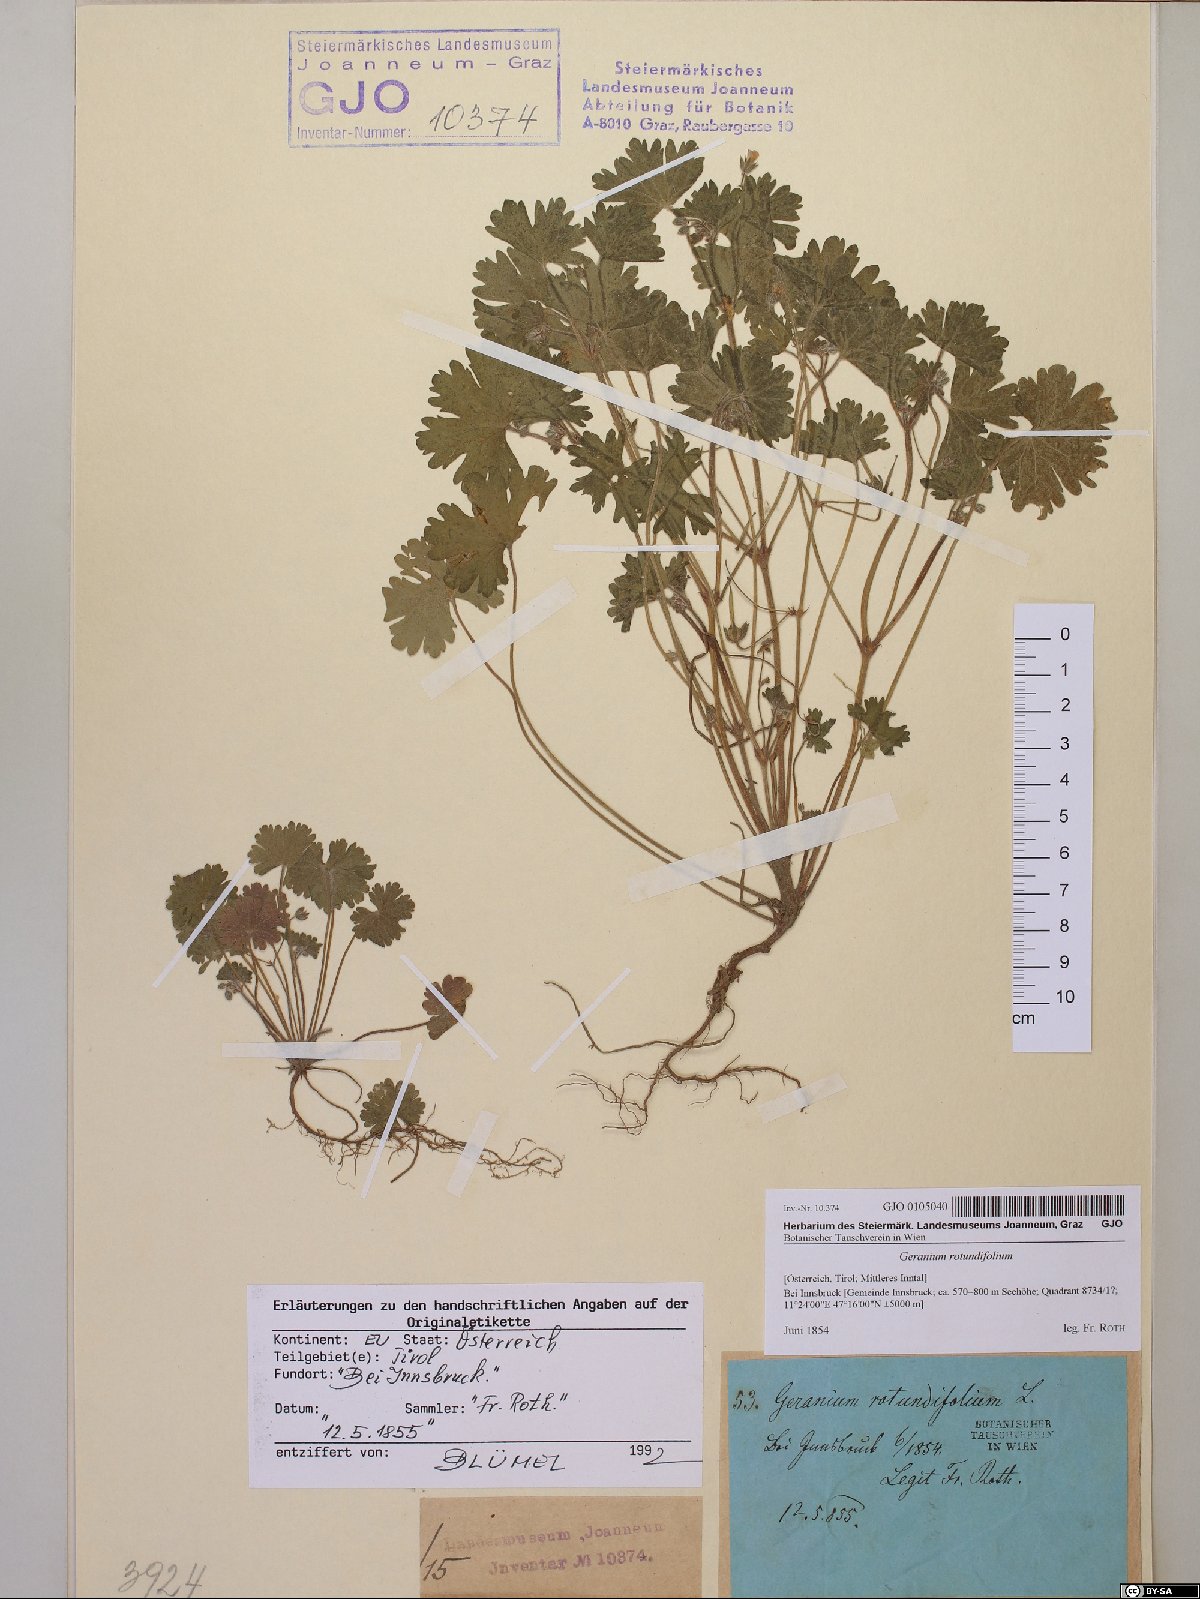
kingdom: Plantae
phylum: Tracheophyta
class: Magnoliopsida
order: Geraniales
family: Geraniaceae
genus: Geranium
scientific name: Geranium rotundifolium
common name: Round-leaved crane's-bill
